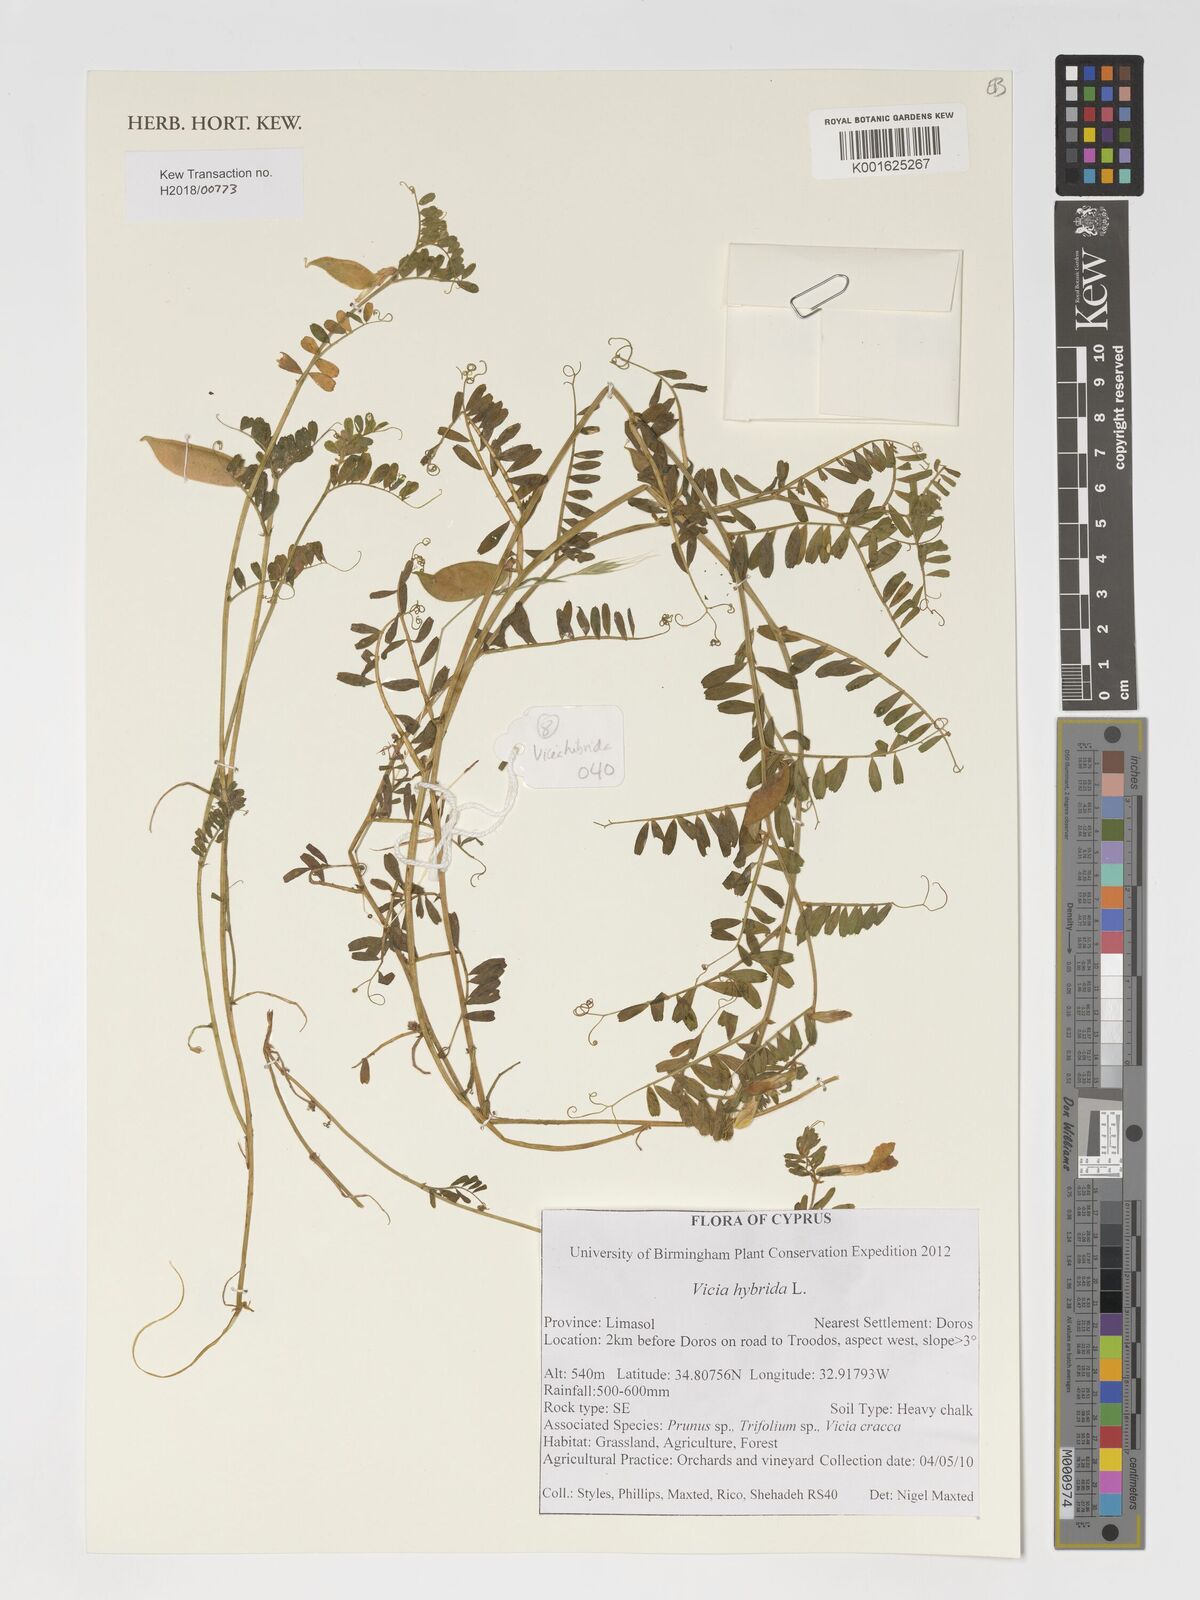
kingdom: Plantae
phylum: Tracheophyta
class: Magnoliopsida
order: Fabales
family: Fabaceae
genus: Vicia
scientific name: Vicia hybrida
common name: Hairy yellow vetch
